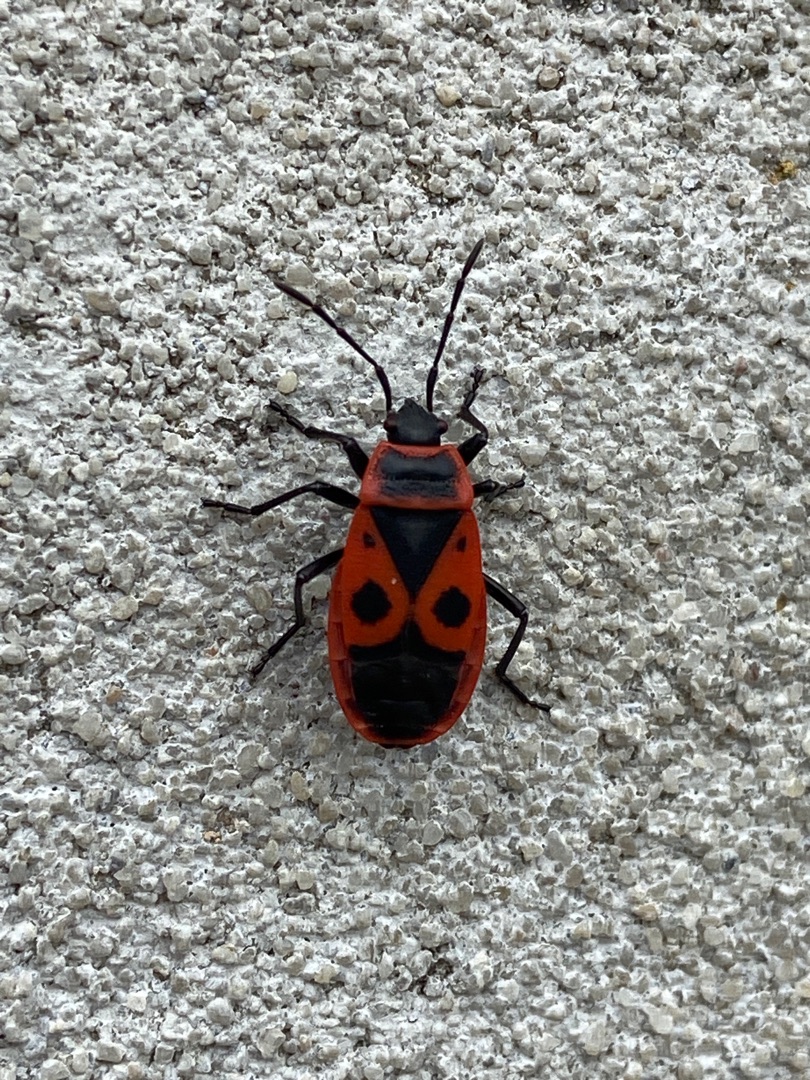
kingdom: Animalia
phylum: Arthropoda
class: Insecta
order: Hemiptera
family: Pyrrhocoridae
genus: Pyrrhocoris
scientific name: Pyrrhocoris apterus
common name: Ildtæge
